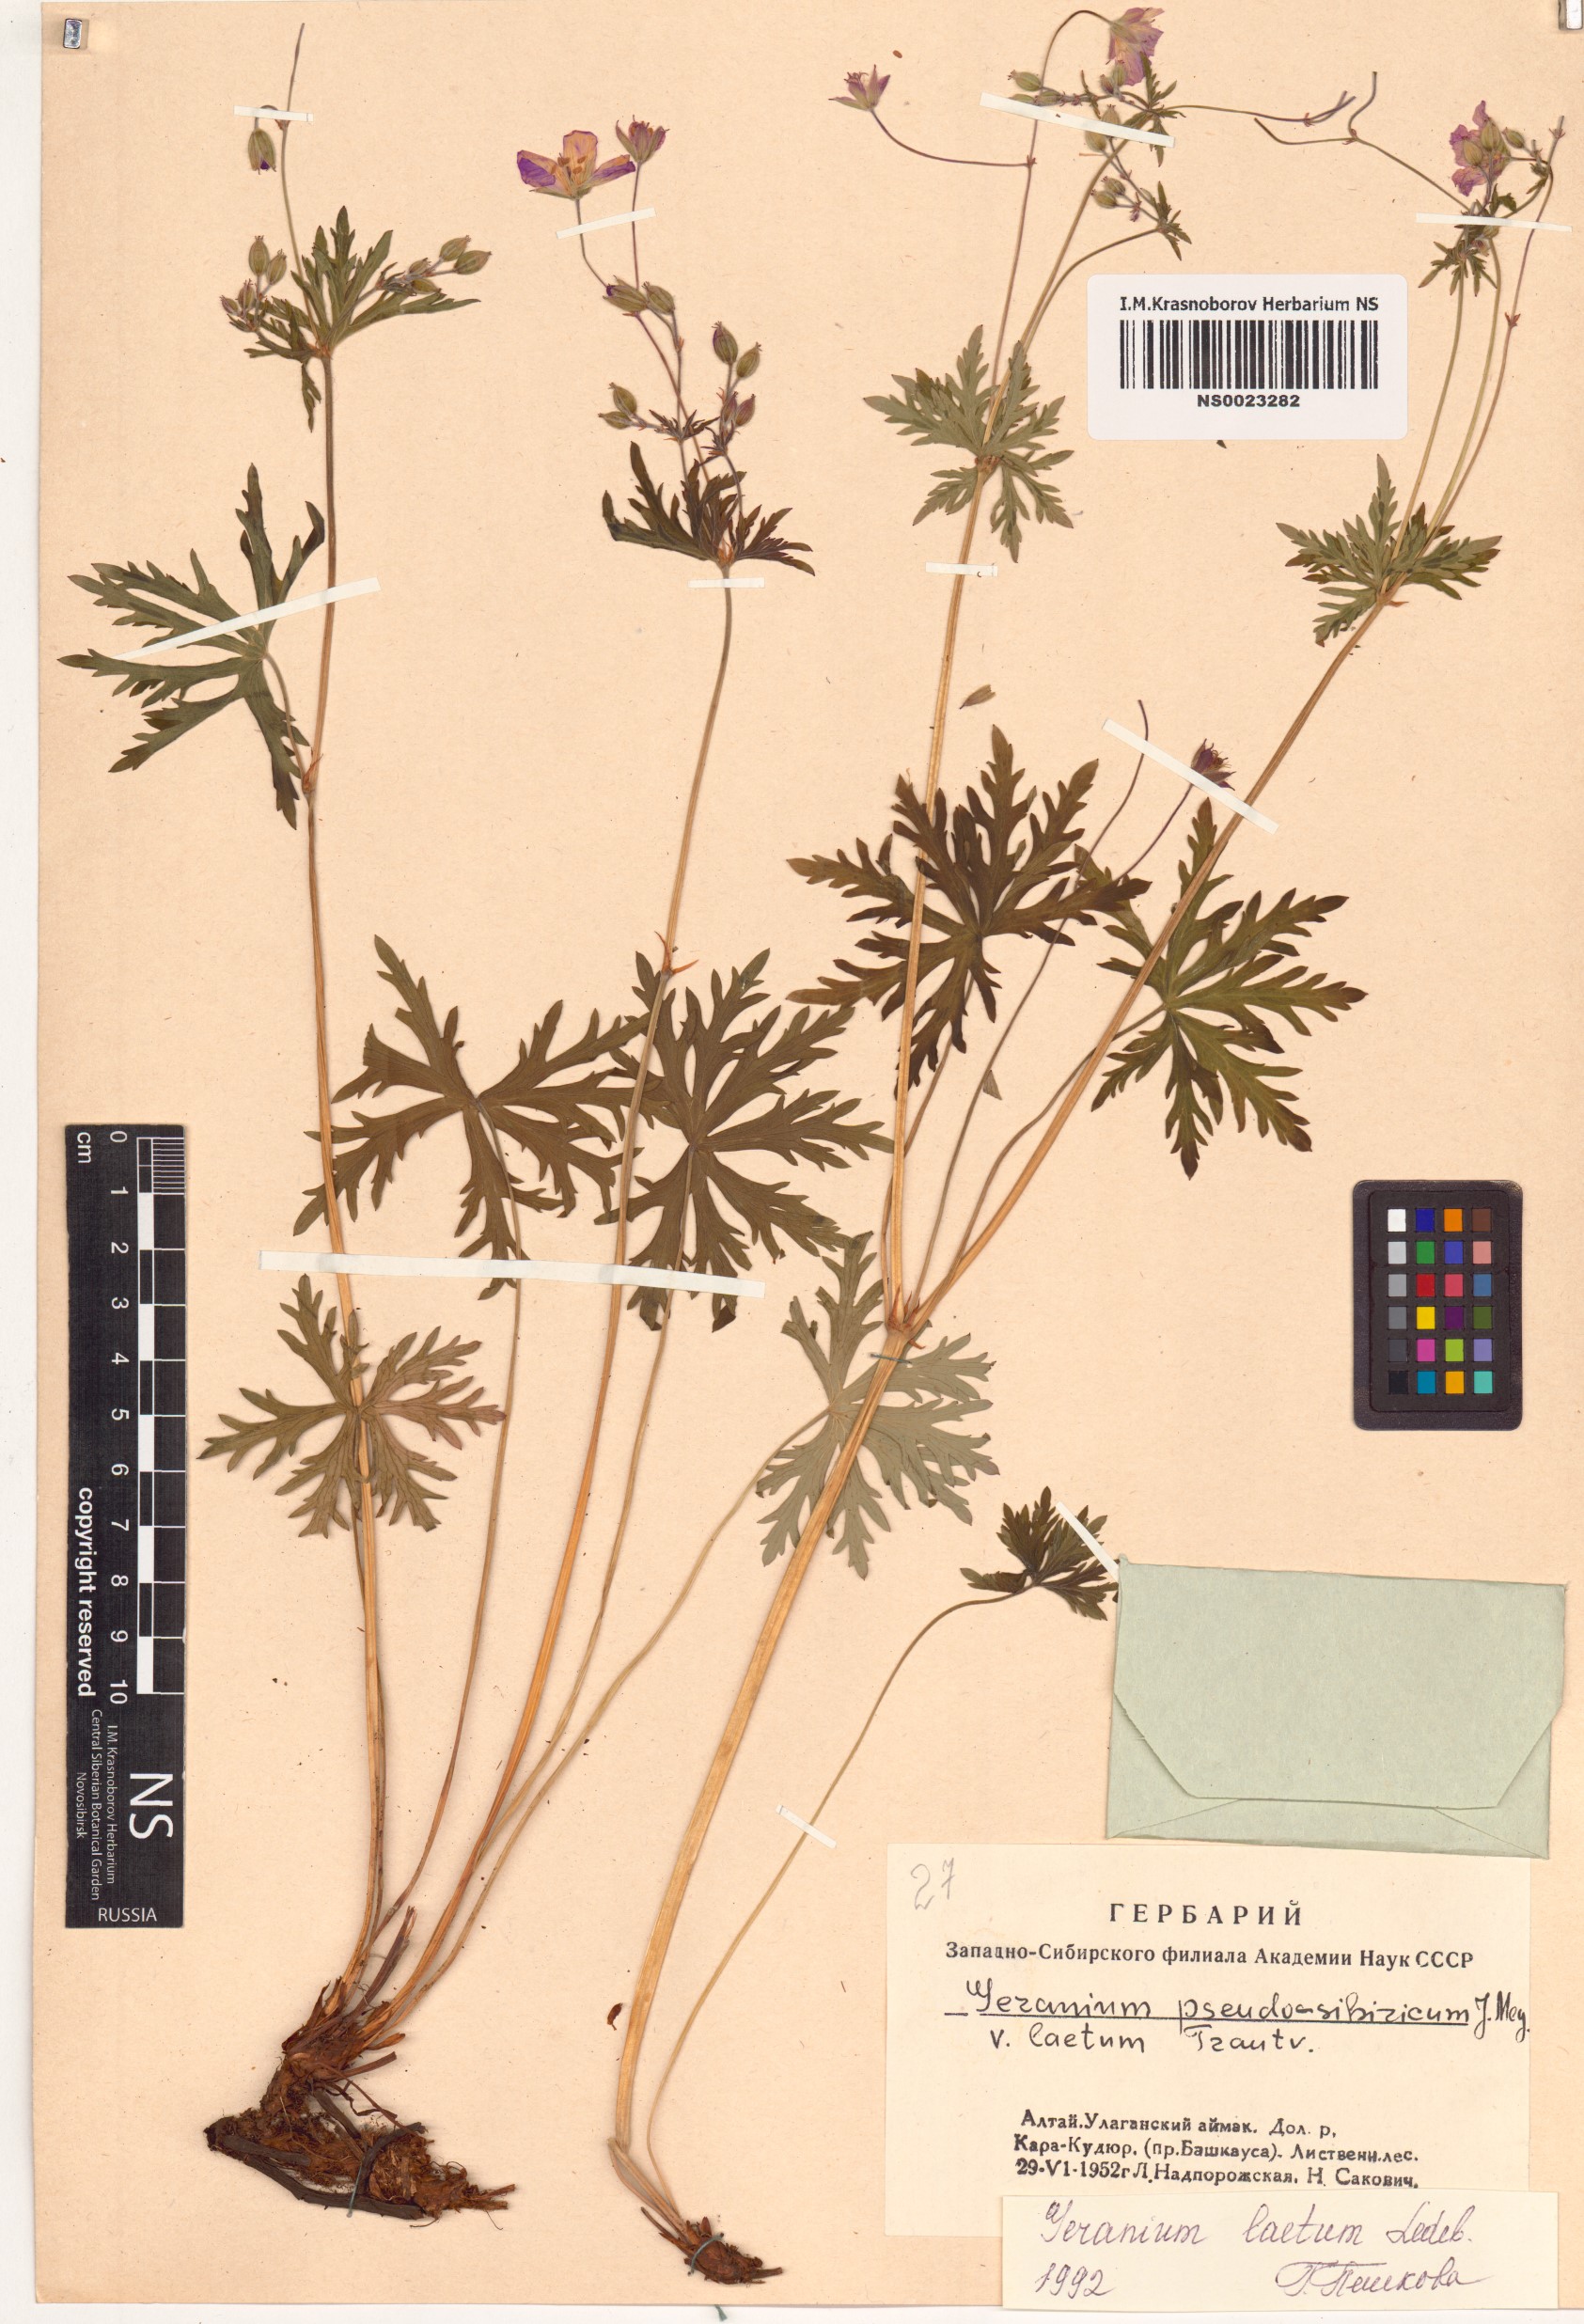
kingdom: Plantae
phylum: Tracheophyta
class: Magnoliopsida
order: Geraniales
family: Geraniaceae
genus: Geranium
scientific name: Geranium pseudosibiricum
